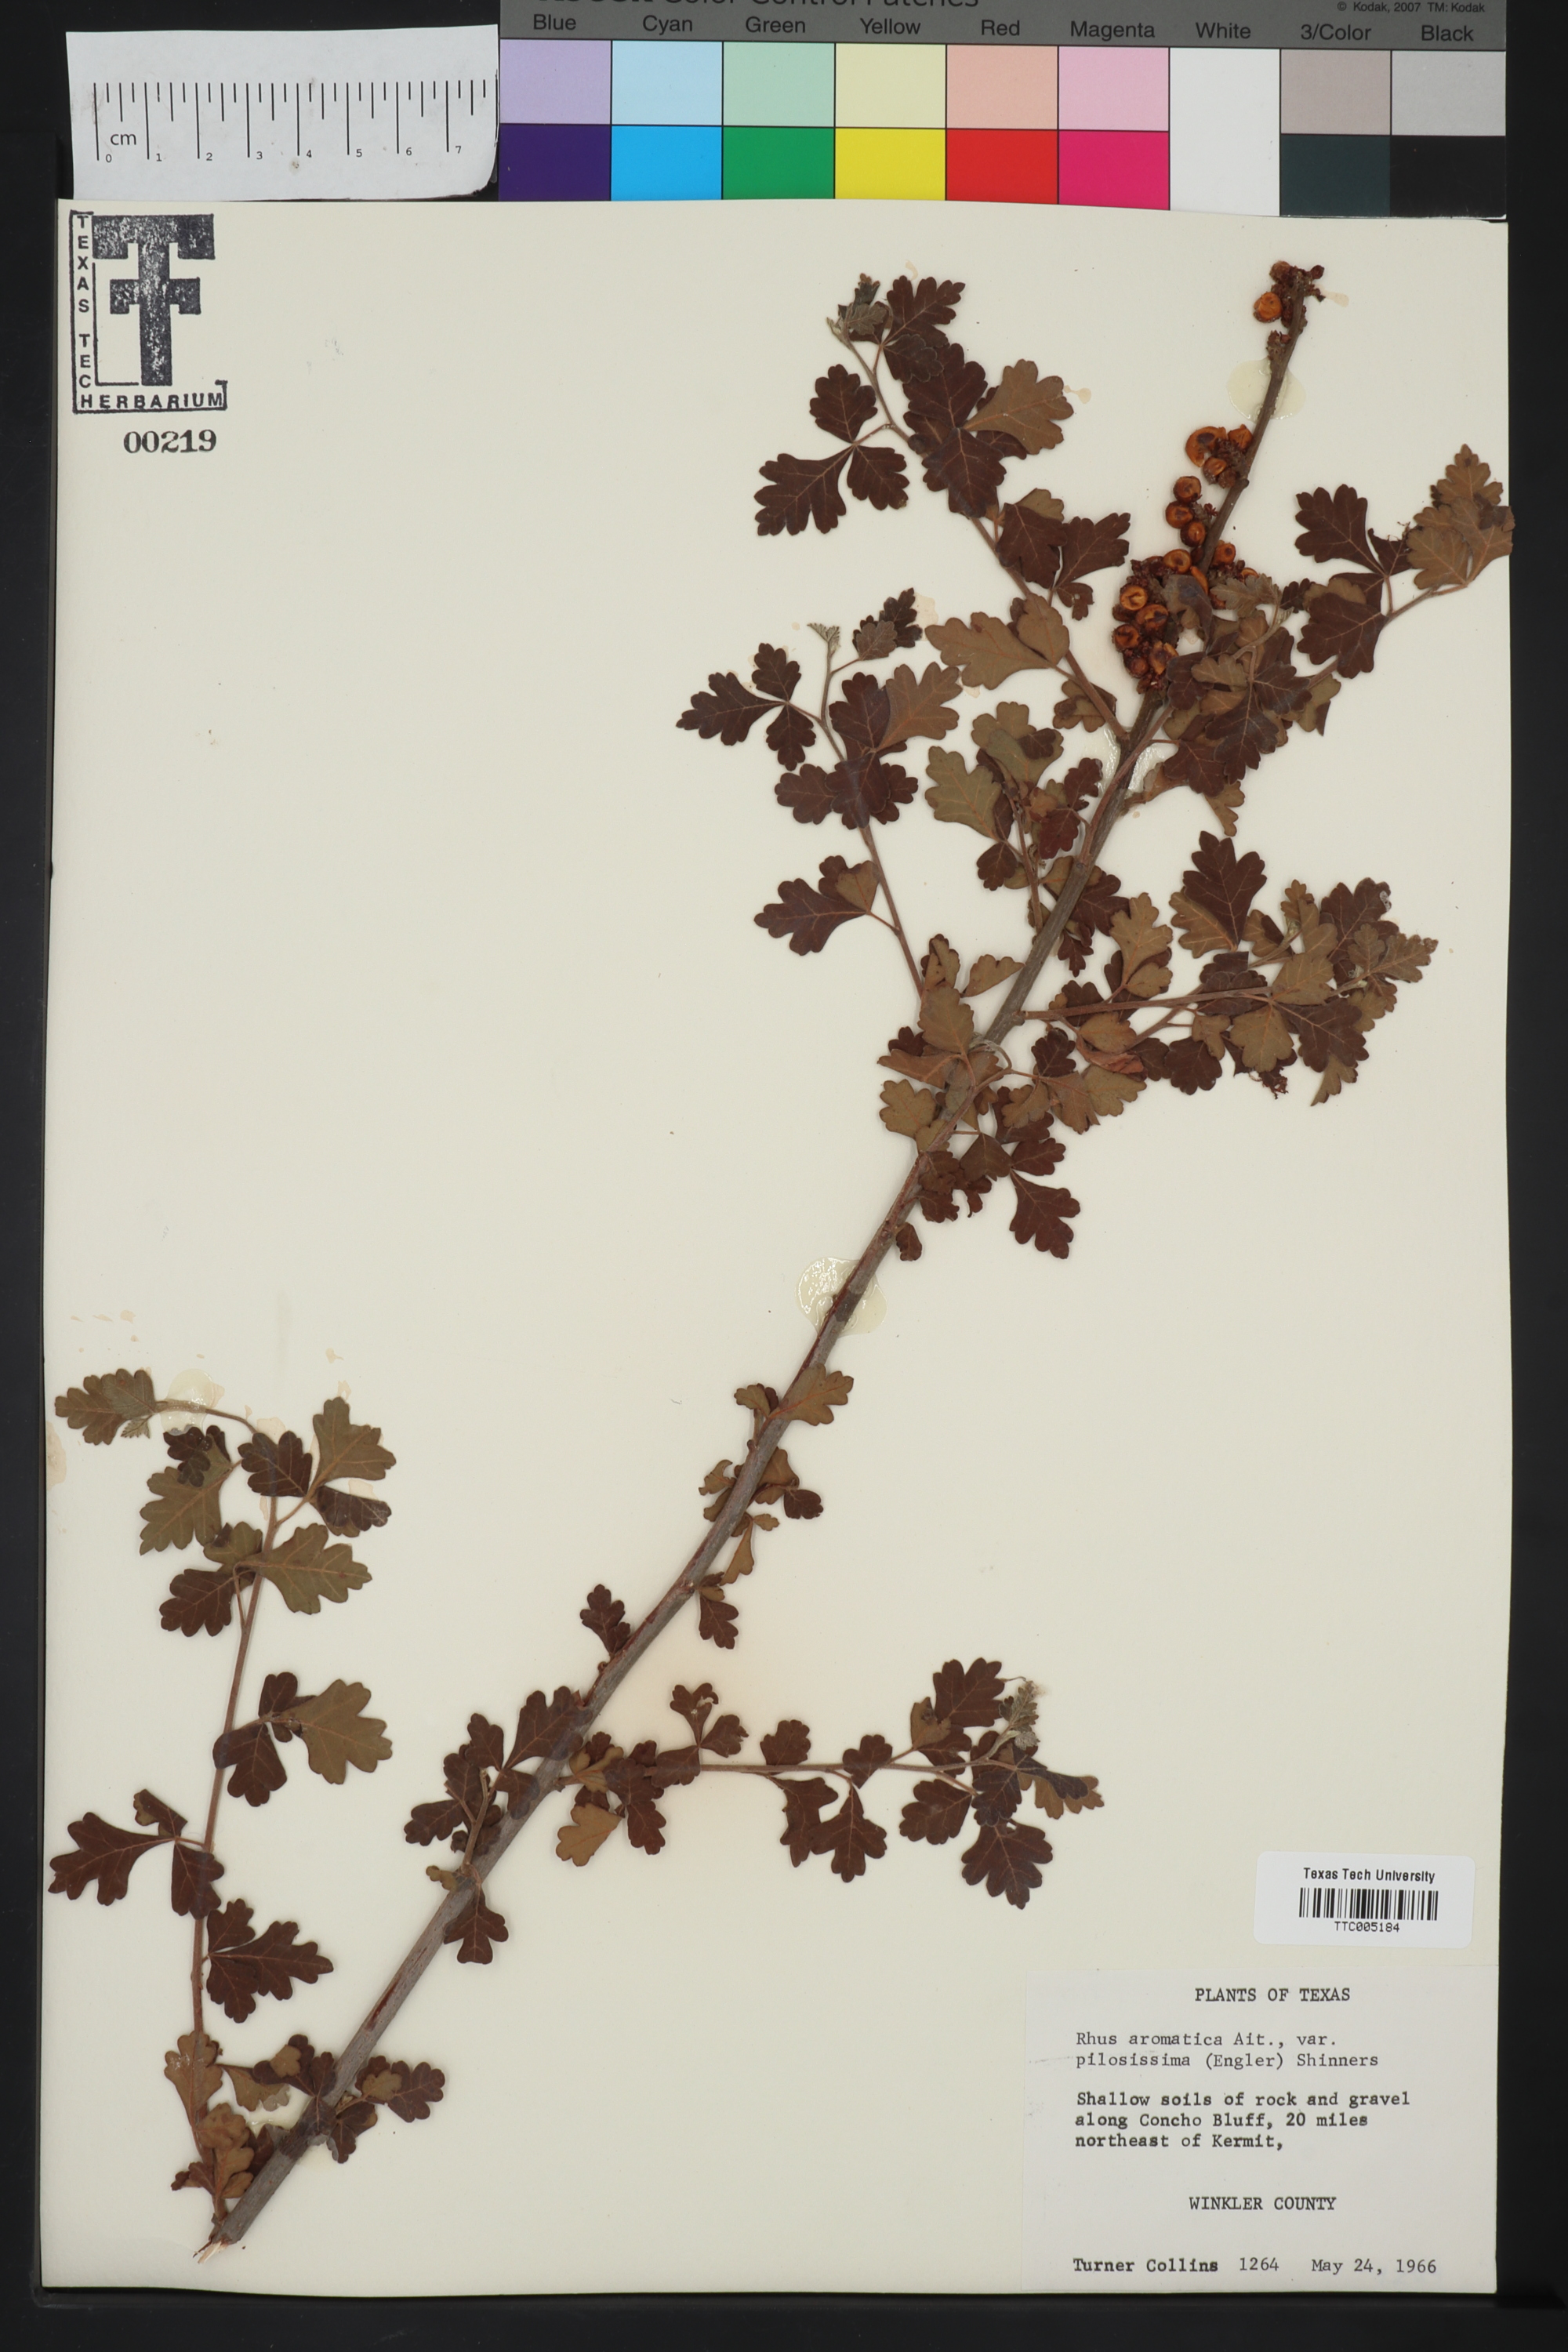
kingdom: Plantae
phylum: Tracheophyta
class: Magnoliopsida
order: Sapindales
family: Anacardiaceae
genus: Rhus
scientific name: Rhus trilobata
